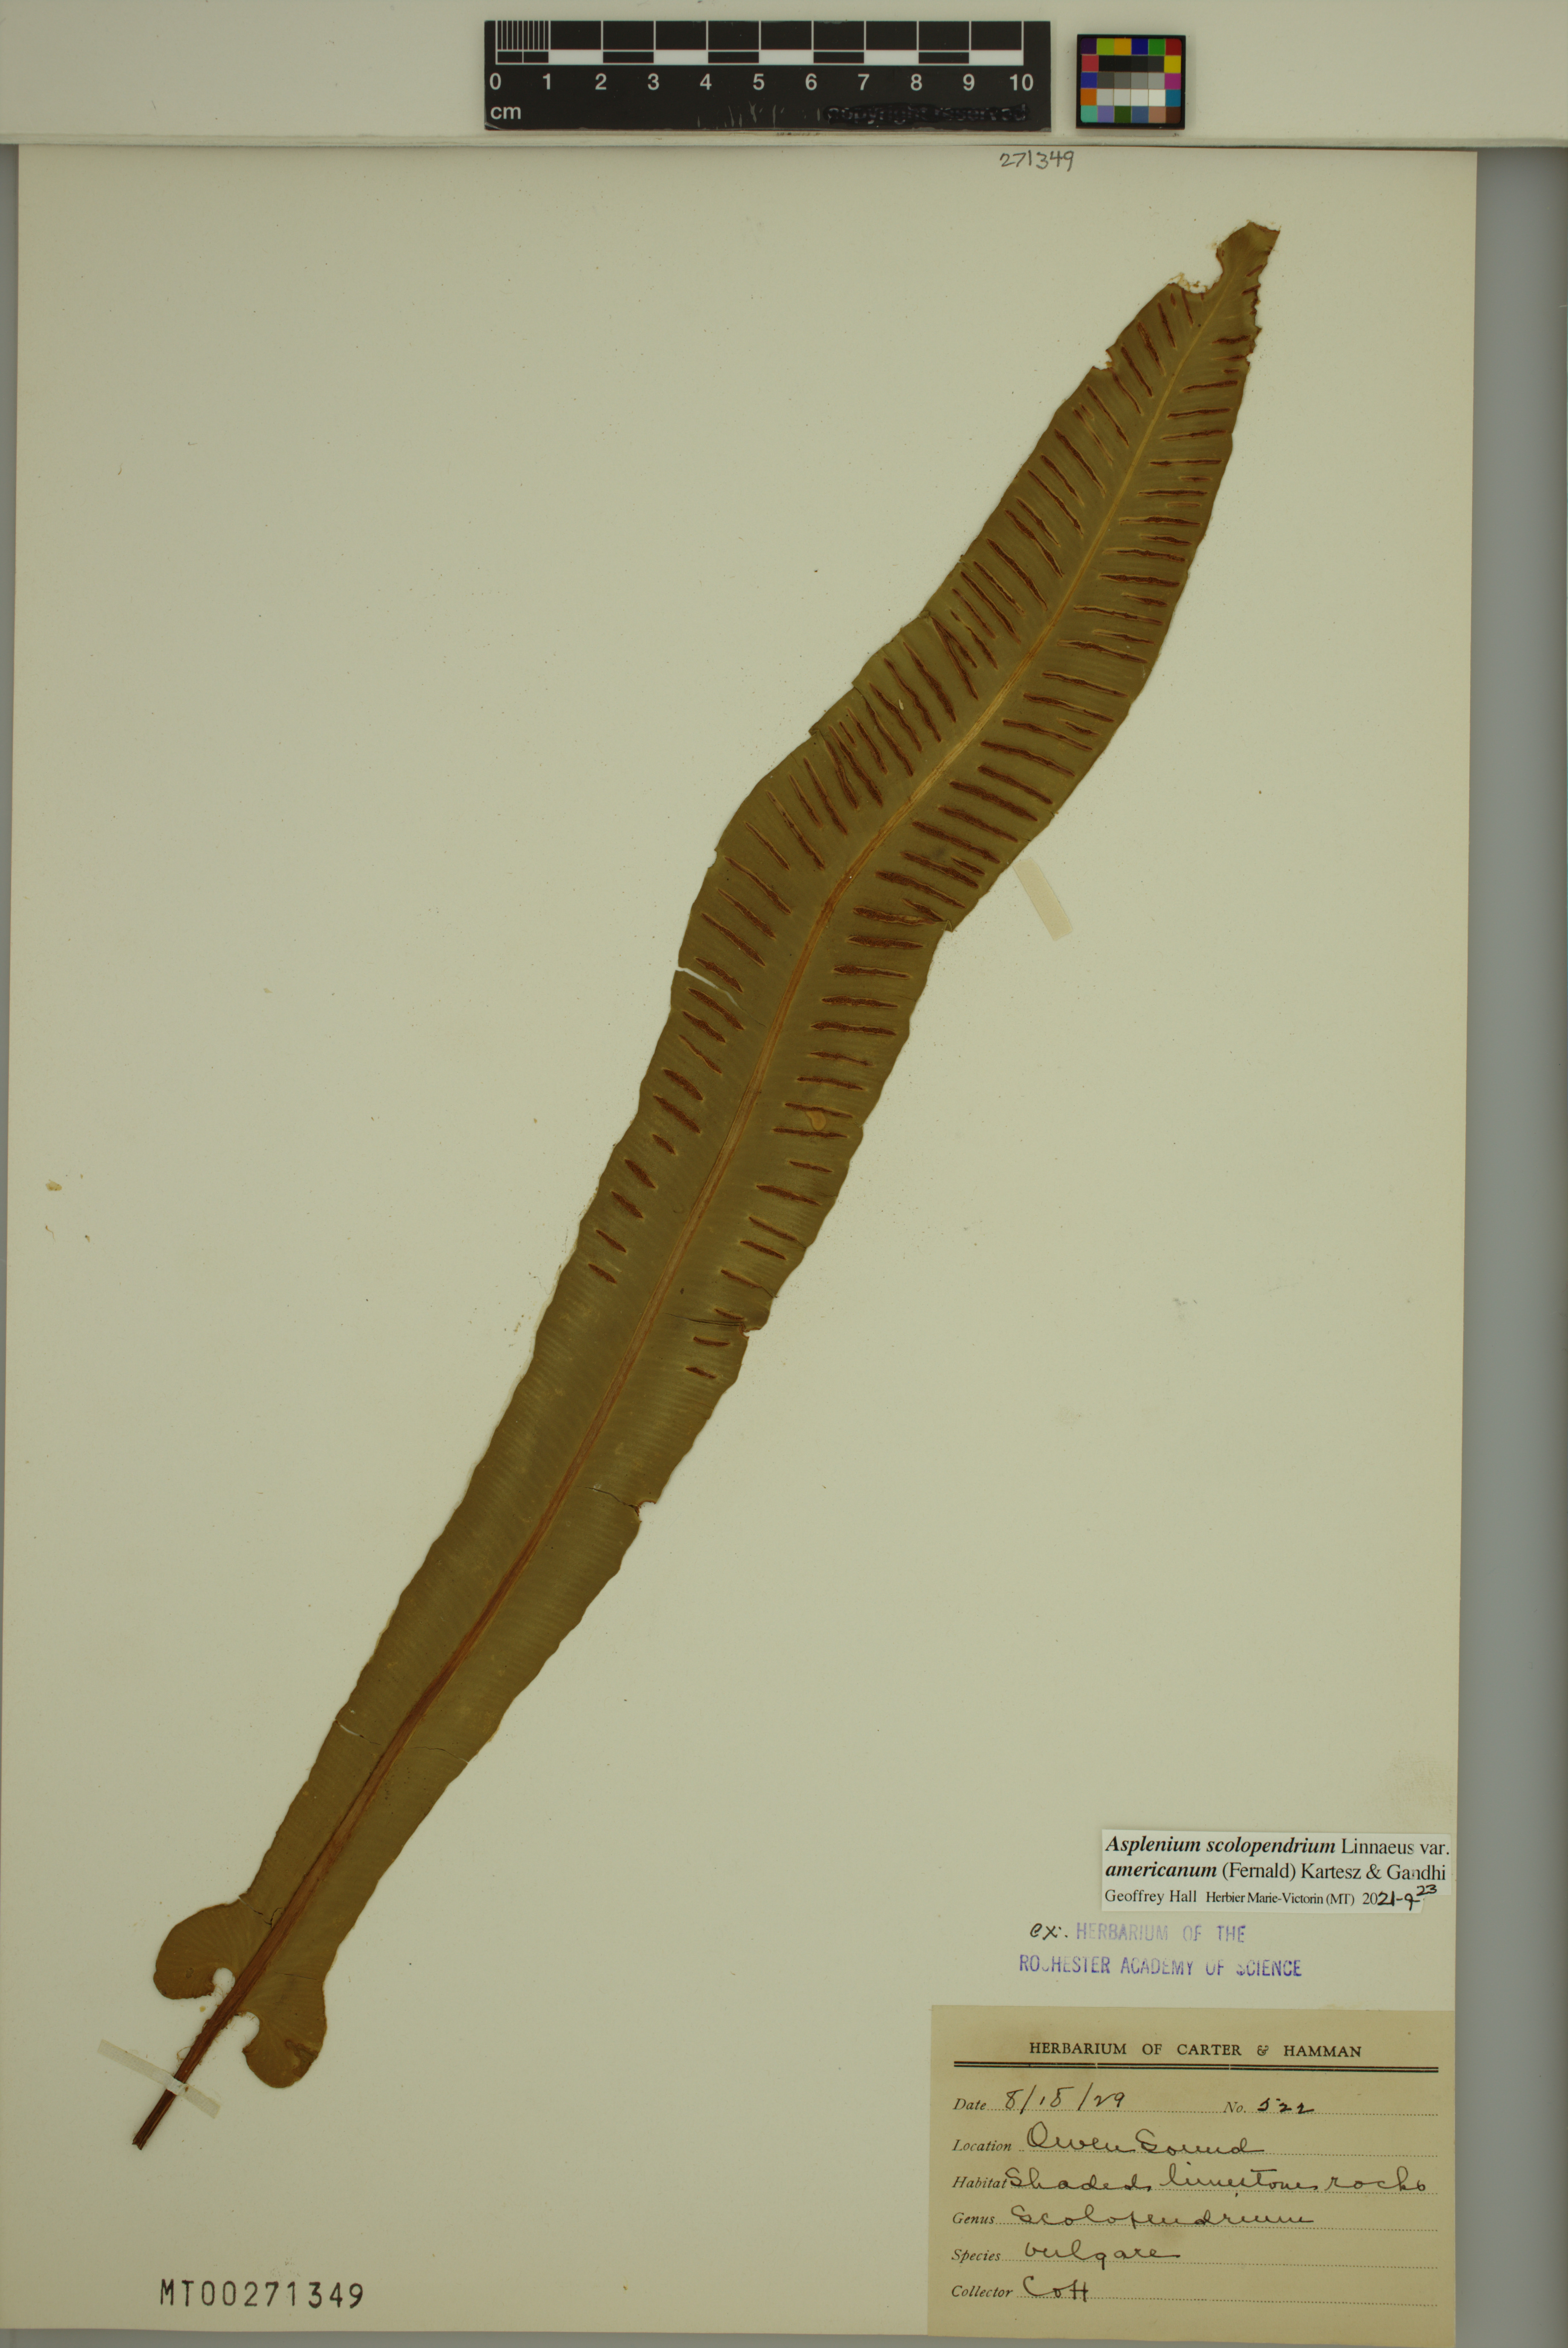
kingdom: Plantae
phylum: Tracheophyta
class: Polypodiopsida
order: Polypodiales
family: Aspleniaceae
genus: Asplenium
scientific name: Asplenium scolopendrium
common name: Hart's-tongue fern
